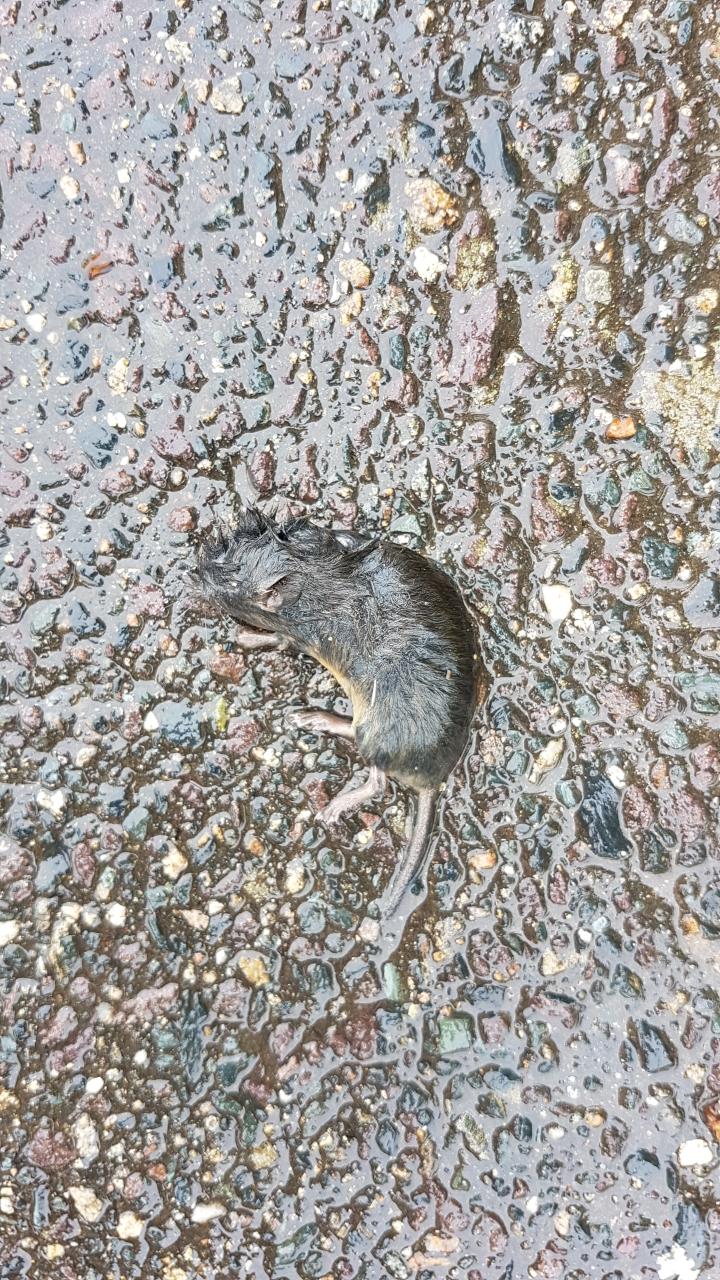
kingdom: Animalia
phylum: Chordata
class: Mammalia
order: Rodentia
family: Cricetidae
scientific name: Cricetidae
